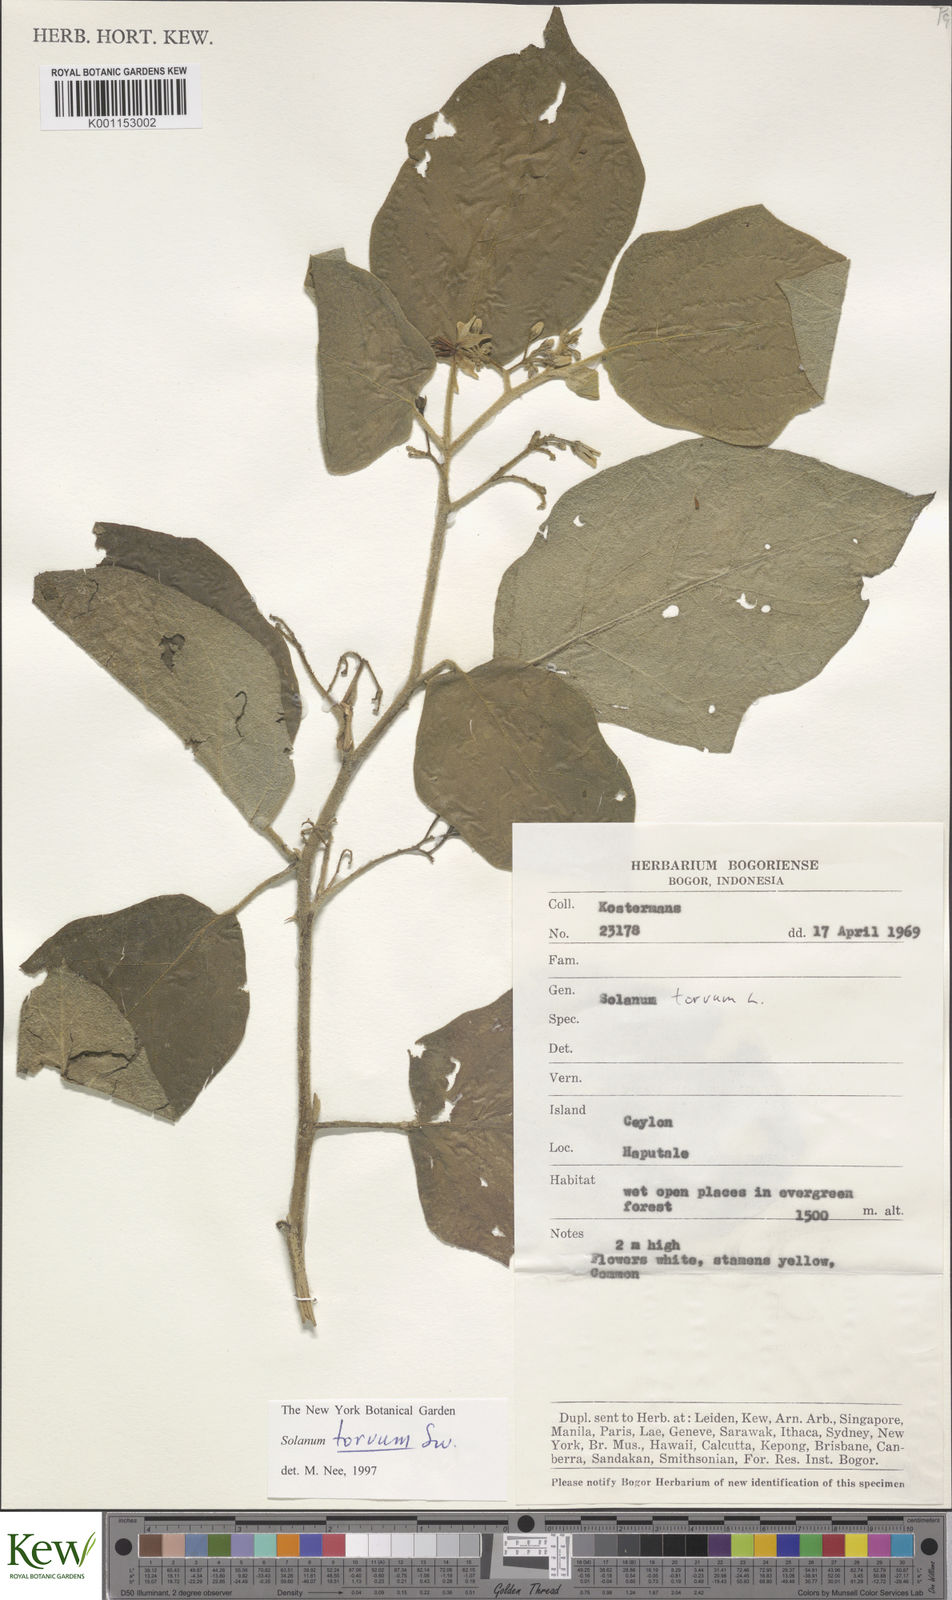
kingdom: Plantae
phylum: Tracheophyta
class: Magnoliopsida
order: Solanales
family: Solanaceae
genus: Solanum
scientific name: Solanum torvum
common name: Turkey berry
